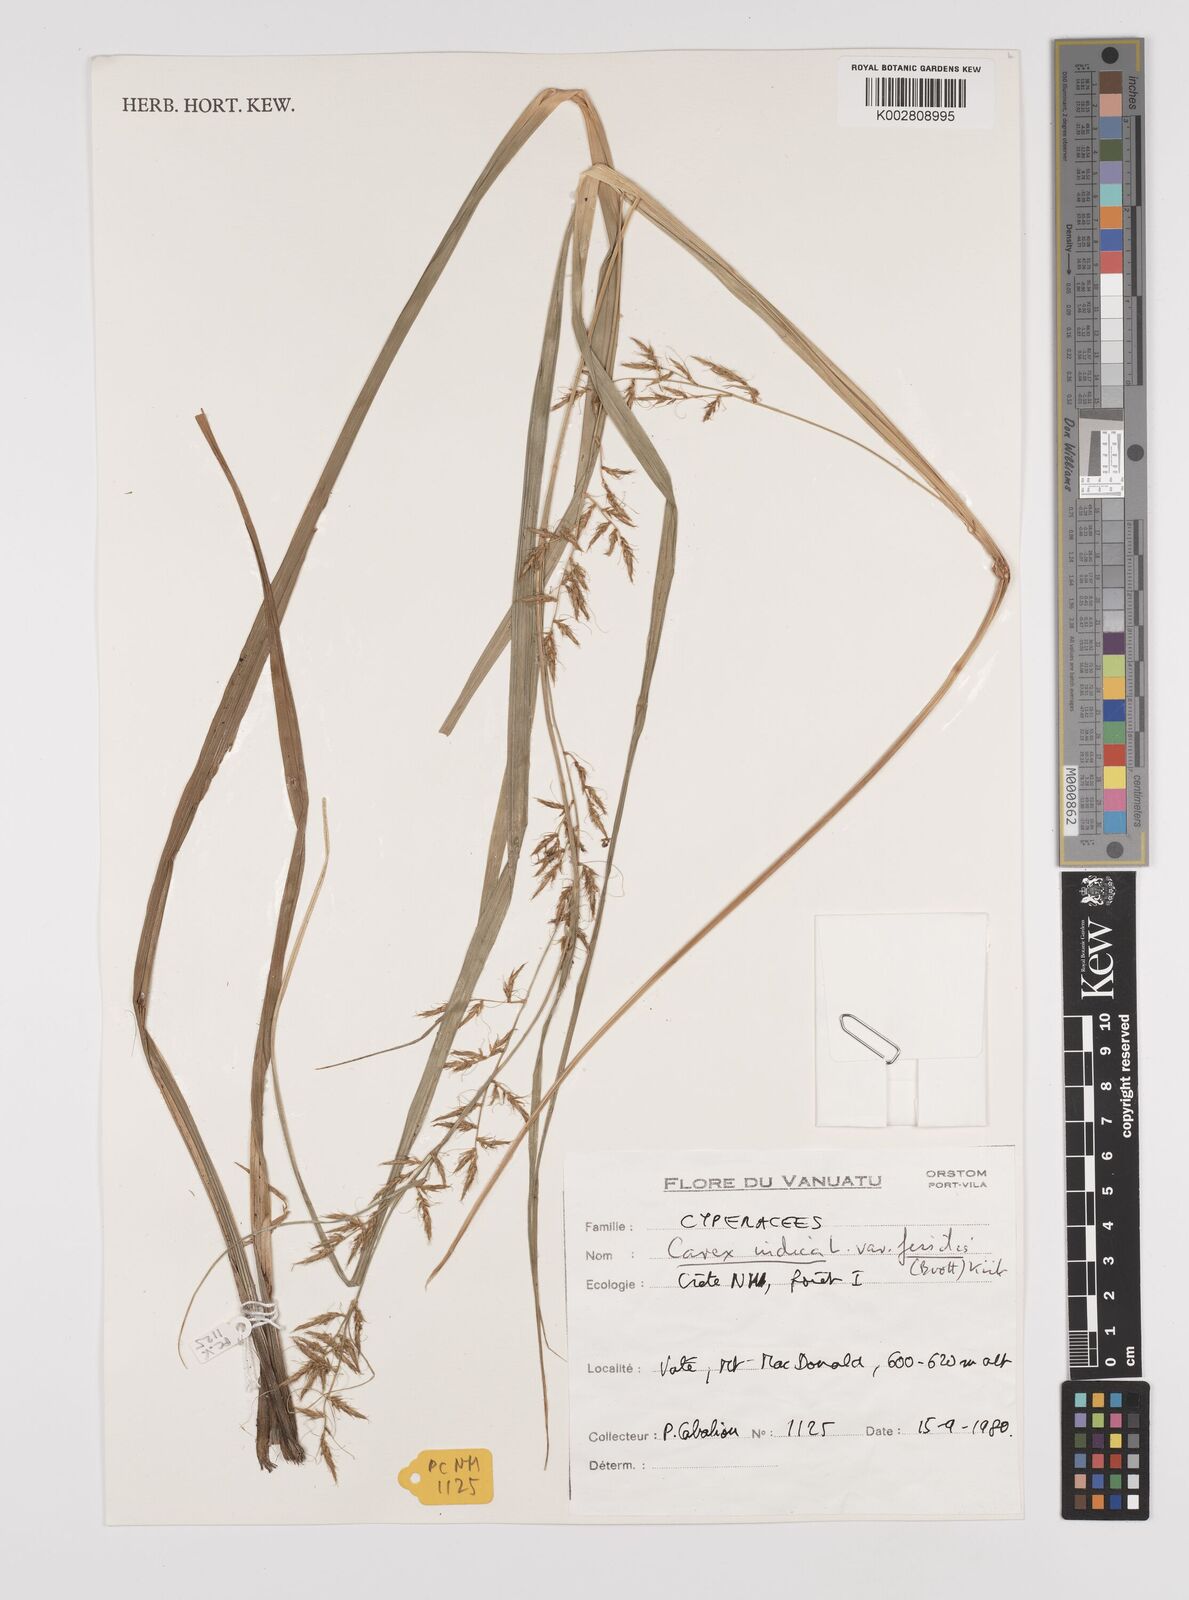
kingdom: Plantae
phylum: Tracheophyta
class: Liliopsida
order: Poales
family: Cyperaceae
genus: Carex
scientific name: Carex indica
